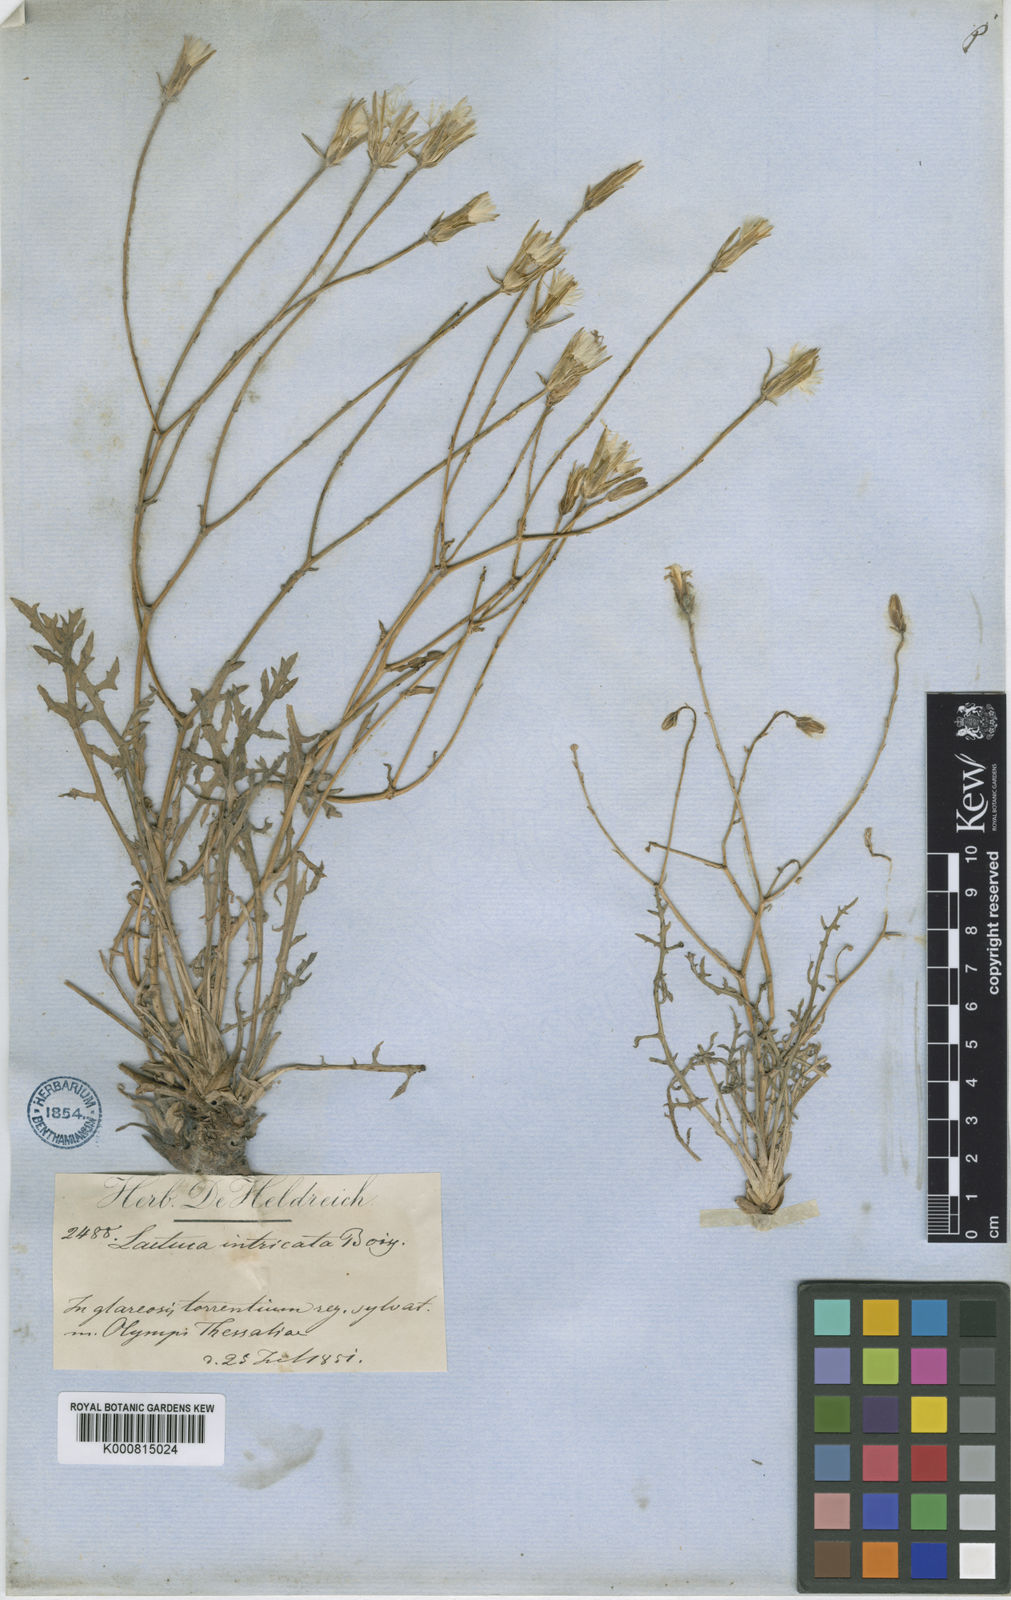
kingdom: Plantae
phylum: Tracheophyta
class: Magnoliopsida
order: Asterales
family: Asteraceae
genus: Lactuca
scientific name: Lactuca intricata
